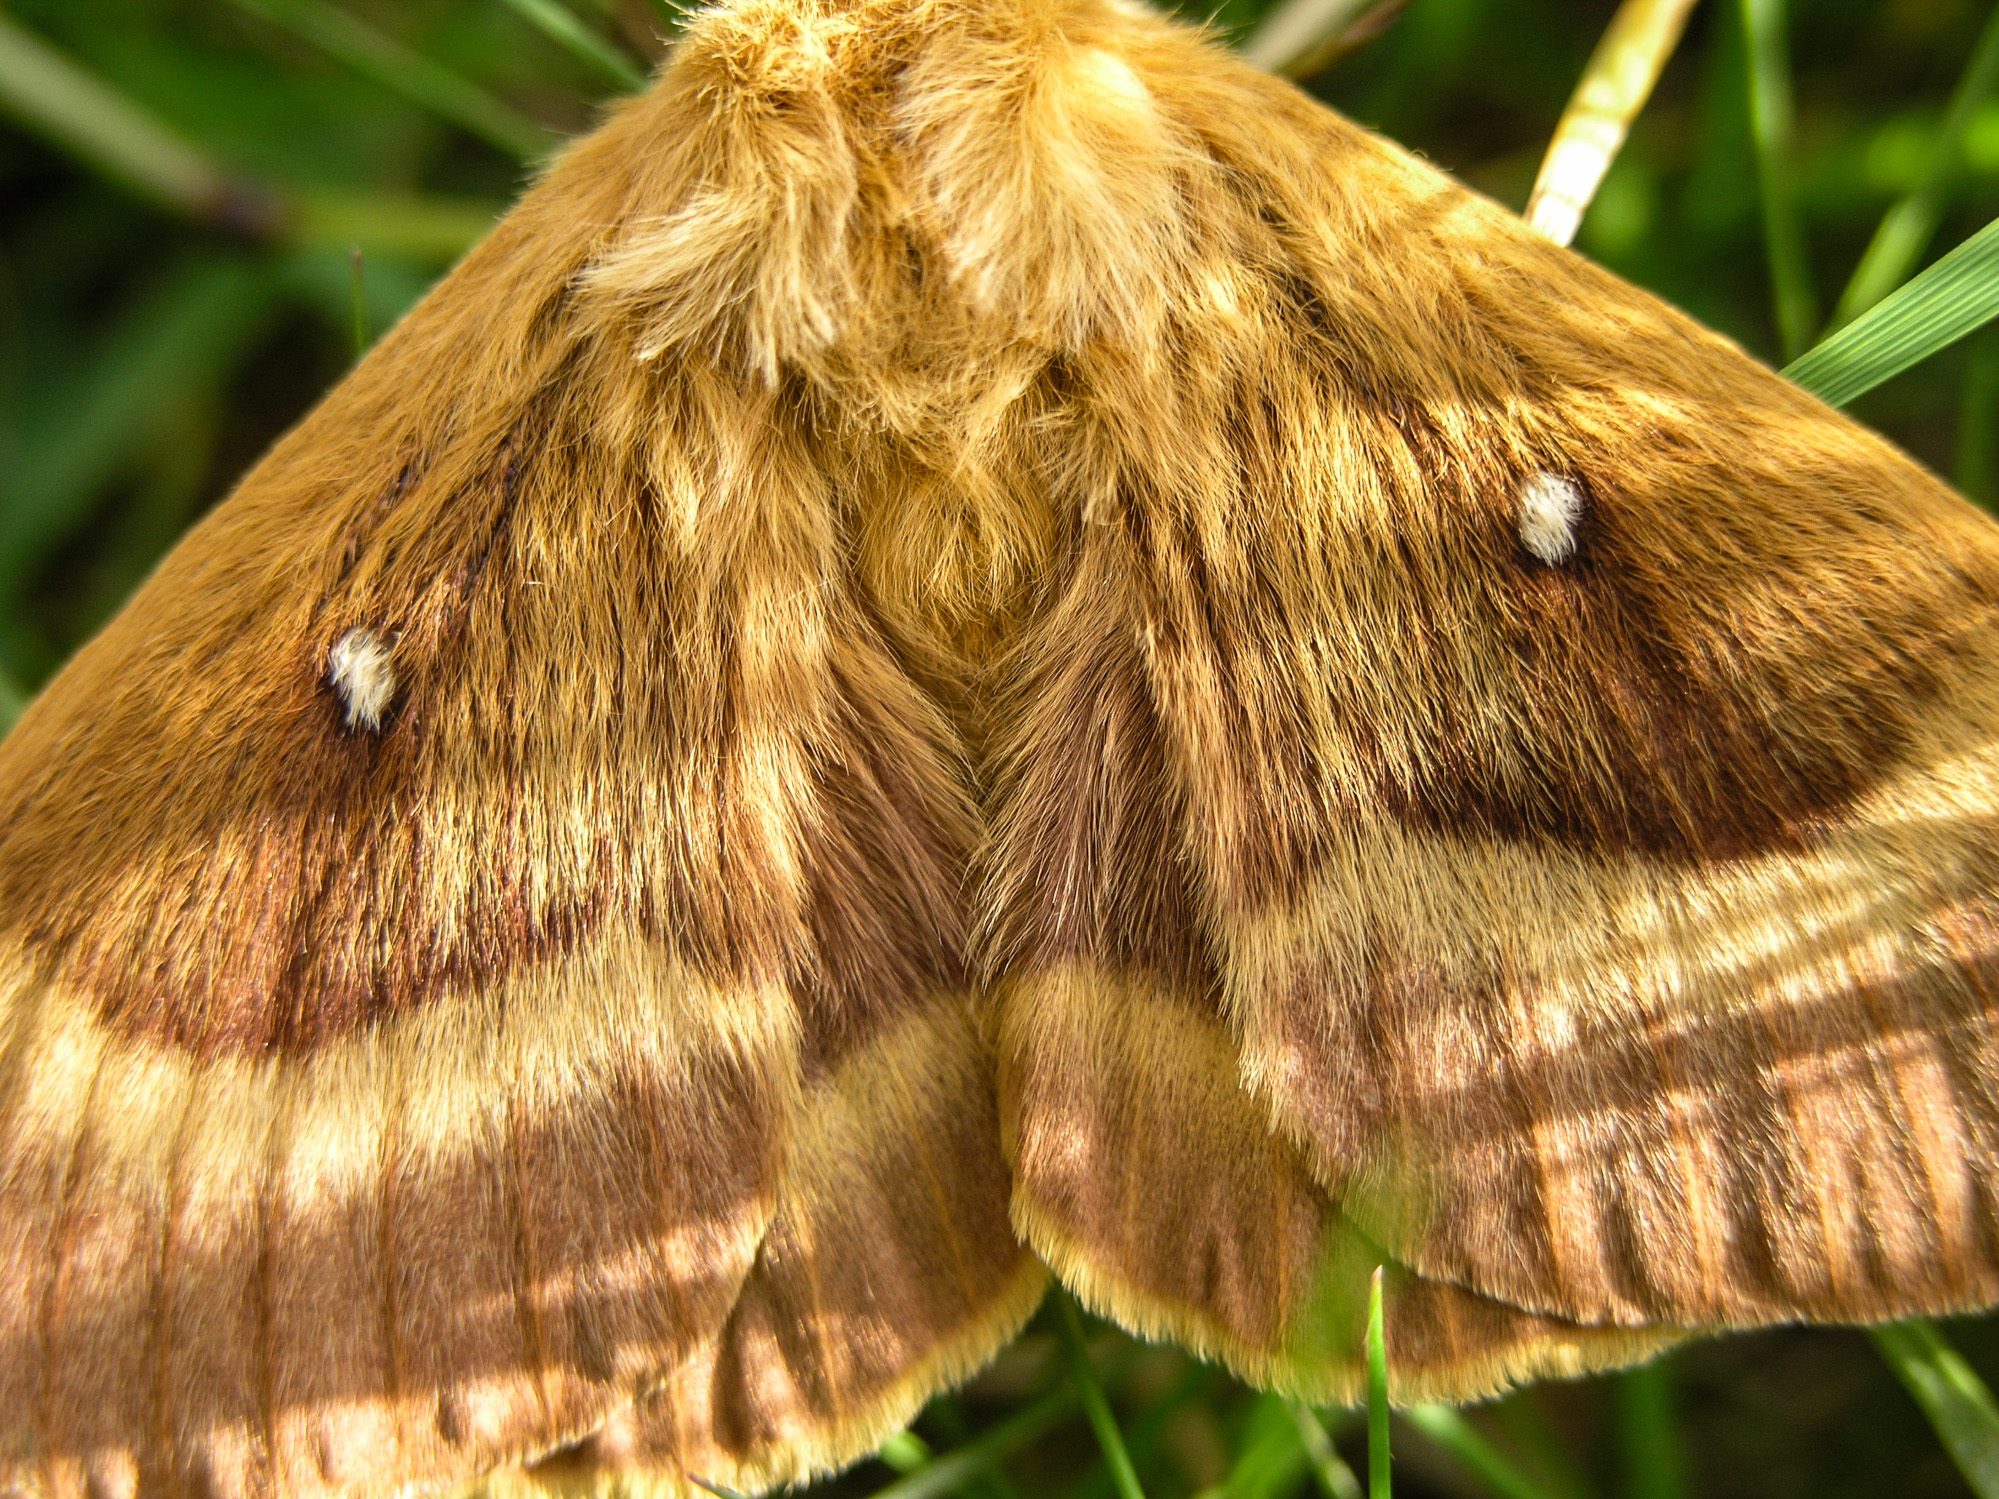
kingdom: Animalia
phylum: Arthropoda
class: Insecta
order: Lepidoptera
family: Lasiocampidae
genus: Lasiocampa
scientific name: Lasiocampa quercus
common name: Oak eggar
